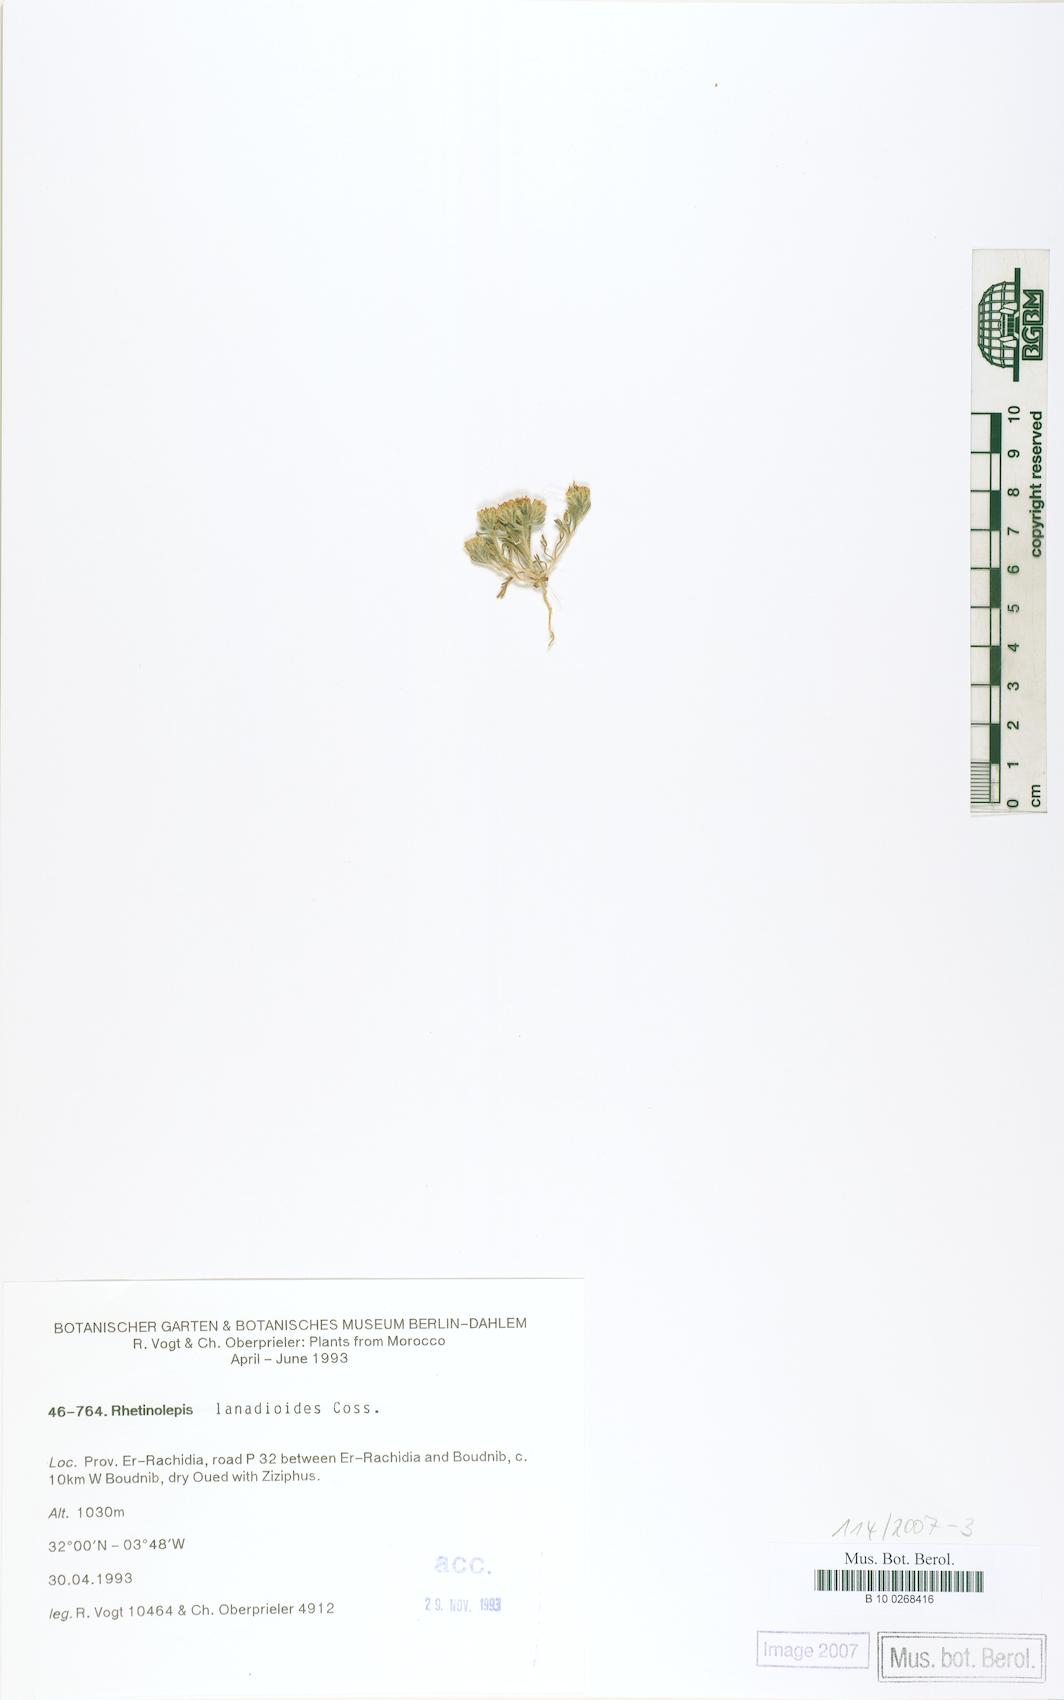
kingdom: Plantae
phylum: Tracheophyta
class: Magnoliopsida
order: Asterales
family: Asteraceae
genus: Rhetinolepis
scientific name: Rhetinolepis lonadioides
